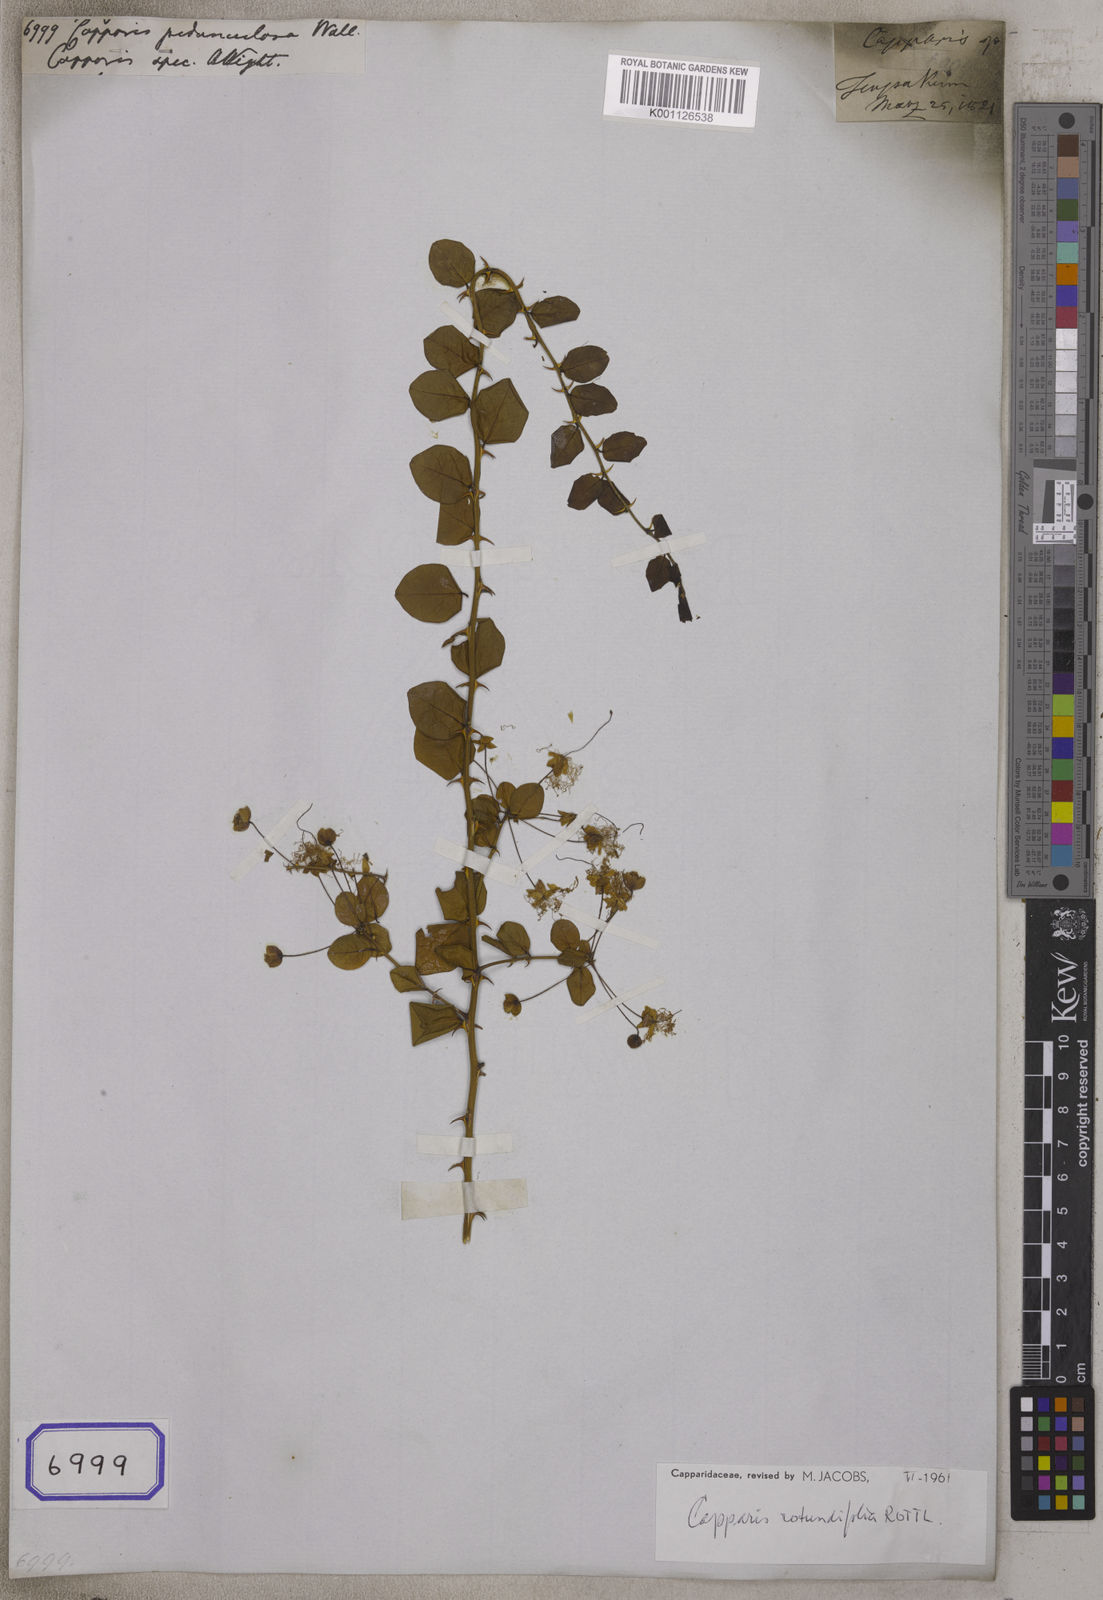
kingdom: Plantae
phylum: Tracheophyta
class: Magnoliopsida
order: Brassicales
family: Capparaceae
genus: Capparis
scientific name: Capparis
